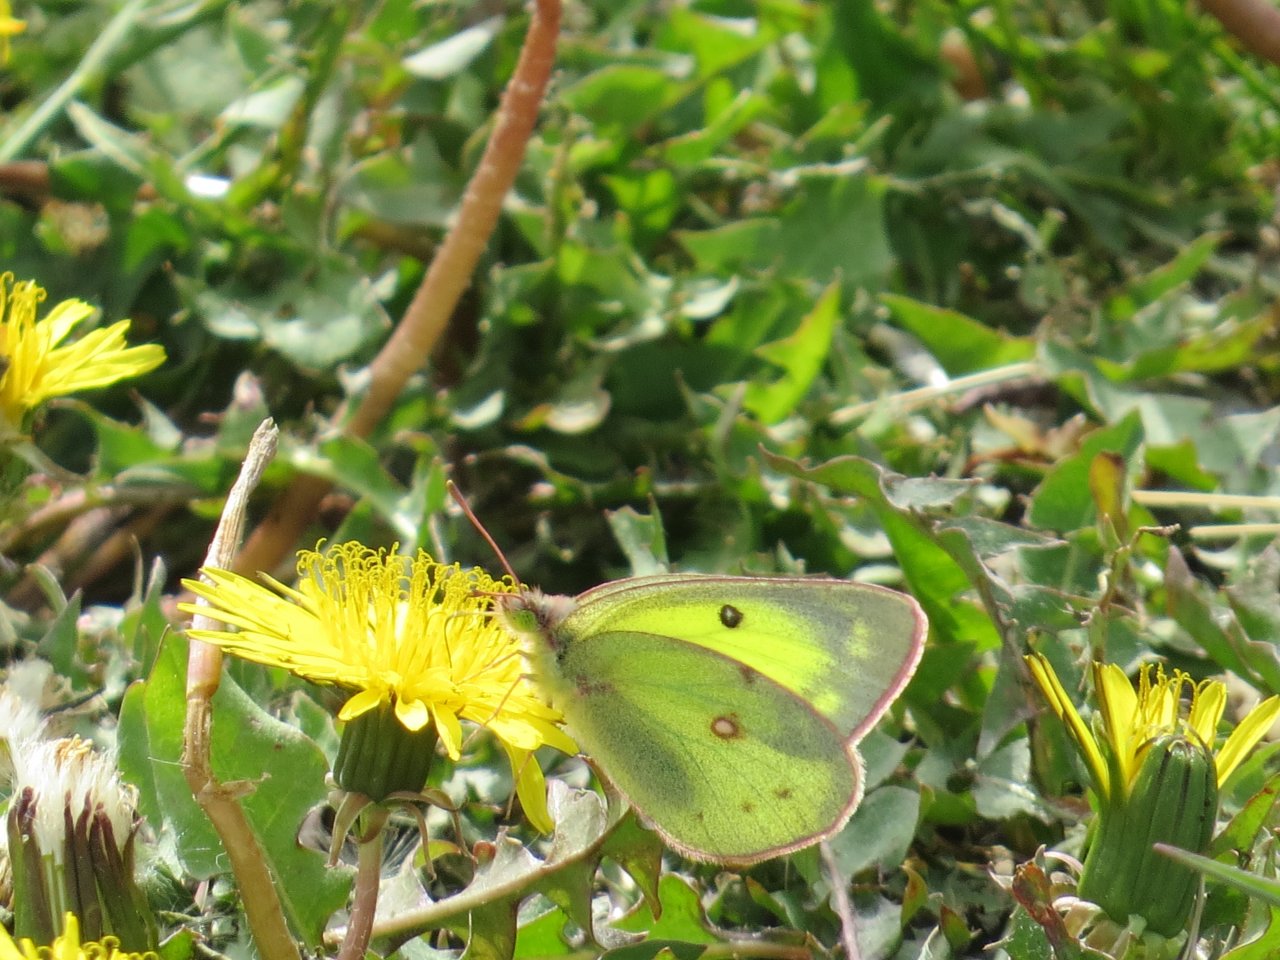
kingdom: Animalia
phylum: Arthropoda
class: Insecta
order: Lepidoptera
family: Pieridae
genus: Colias
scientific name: Colias philodice
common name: Clouded Sulphur
